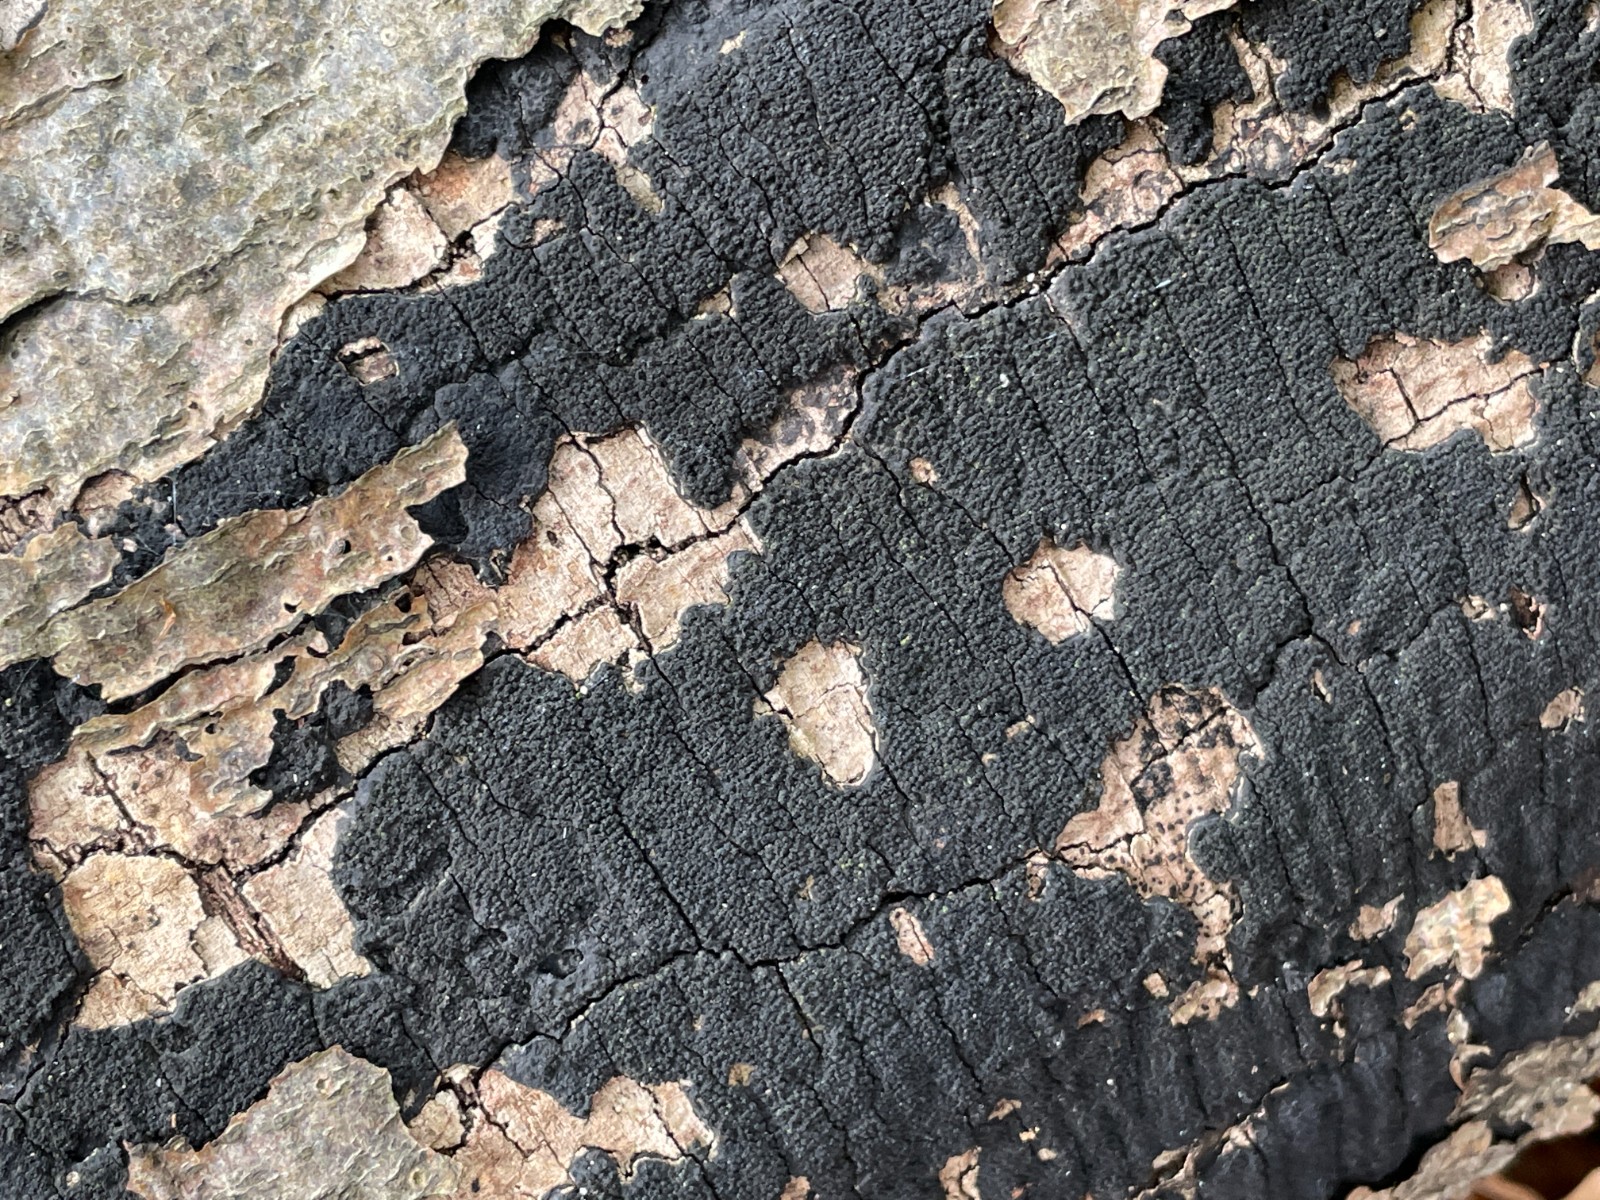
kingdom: Fungi
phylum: Ascomycota
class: Sordariomycetes
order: Xylariales
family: Diatrypaceae
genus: Eutypa
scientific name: Eutypa spinosa
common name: grov kulskorpe
